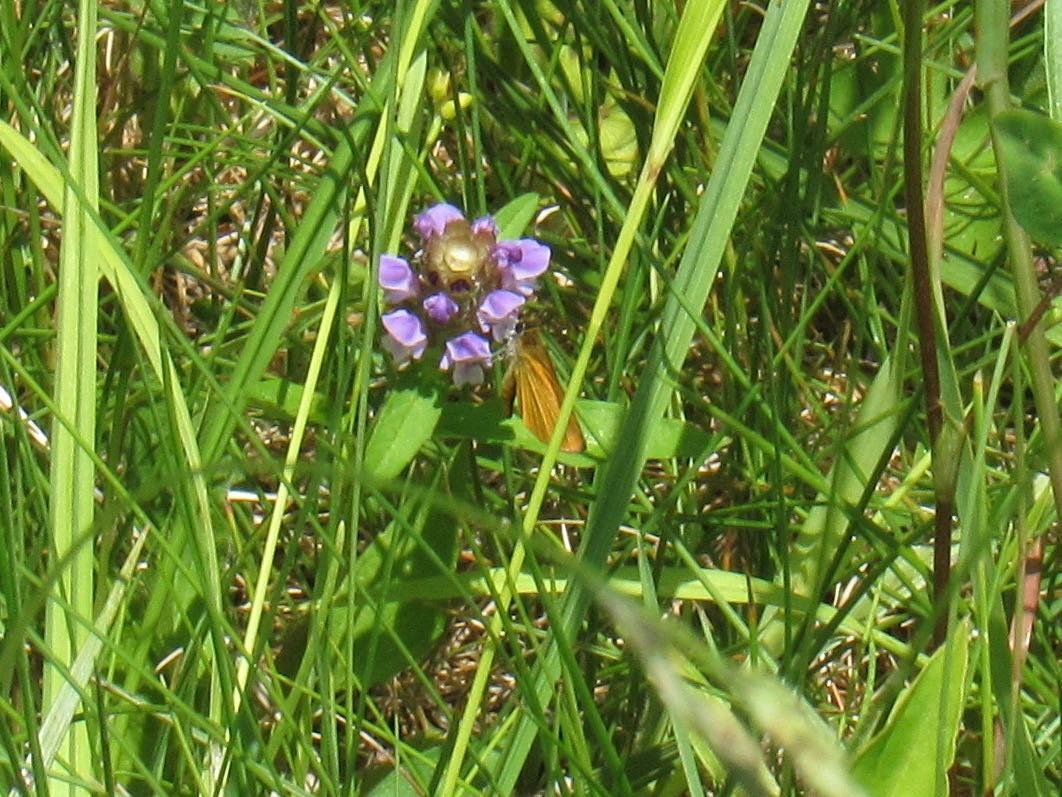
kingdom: Animalia
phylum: Arthropoda
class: Insecta
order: Lepidoptera
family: Hesperiidae
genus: Ancyloxypha
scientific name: Ancyloxypha numitor
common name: Least Skipper
